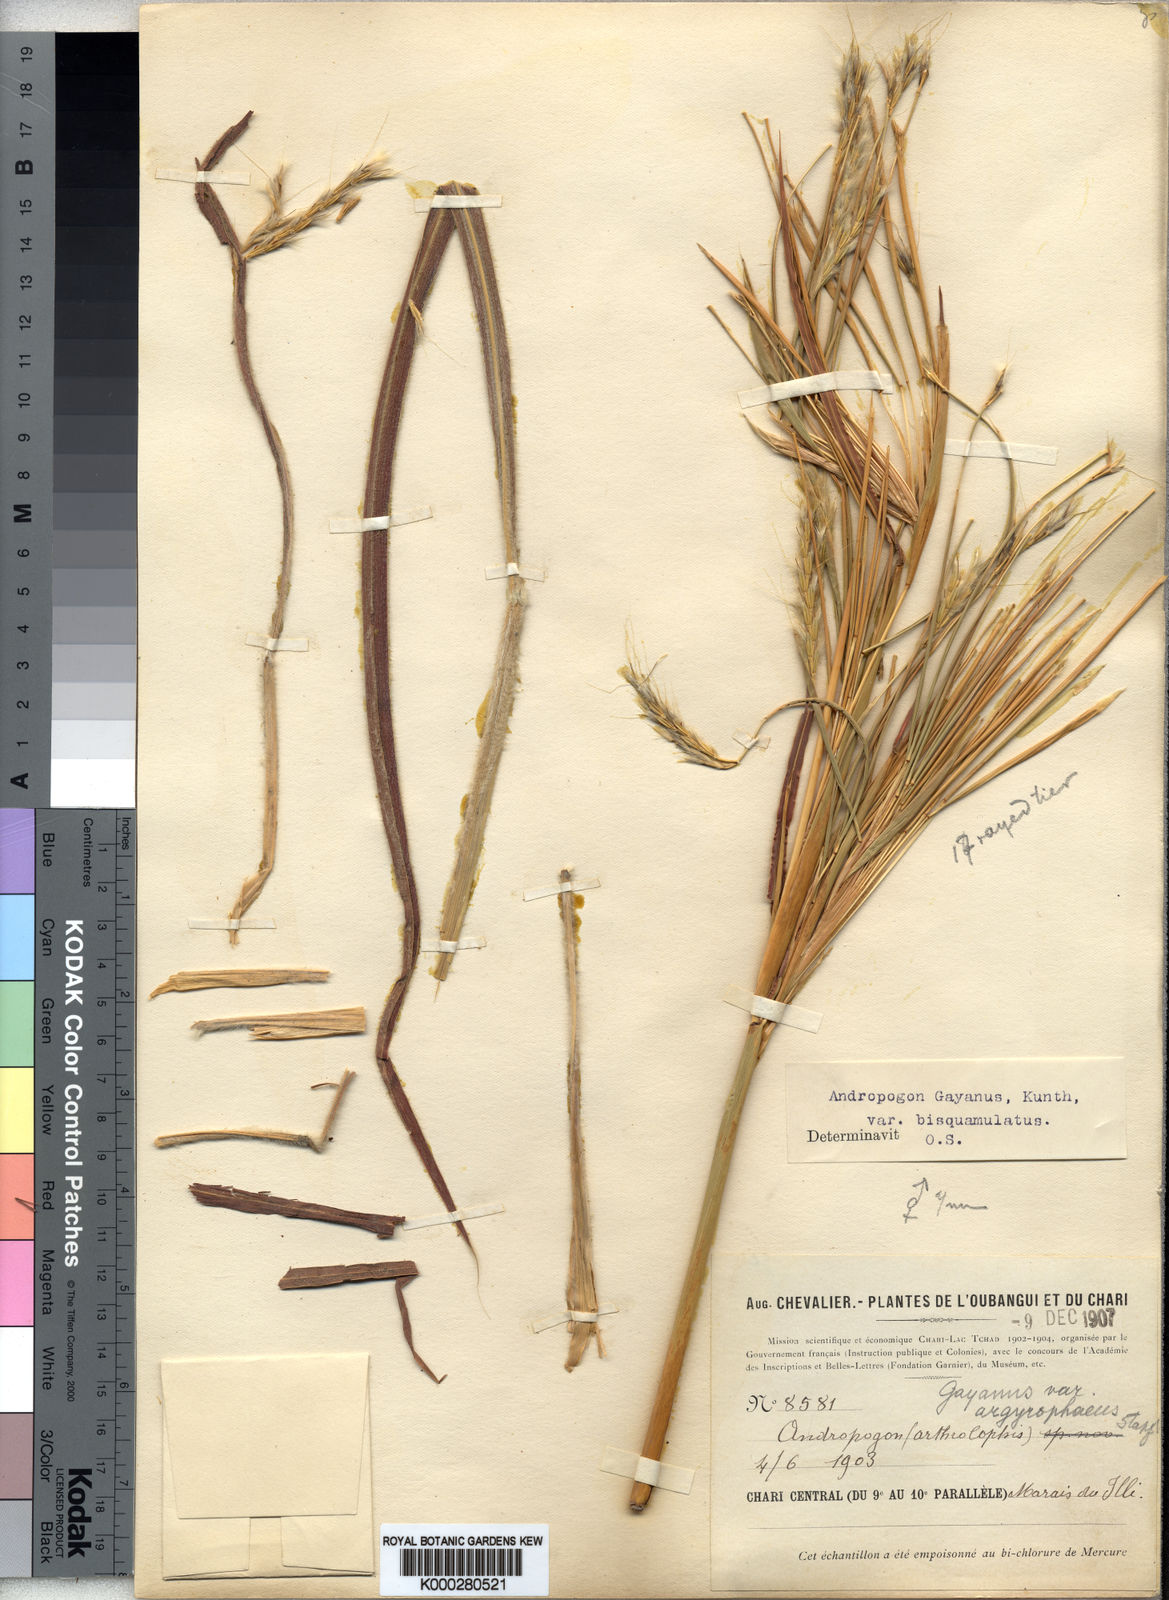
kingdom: Plantae
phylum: Tracheophyta
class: Liliopsida
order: Poales
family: Poaceae
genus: Andropogon
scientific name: Andropogon gayanus
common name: Tambuki grass
